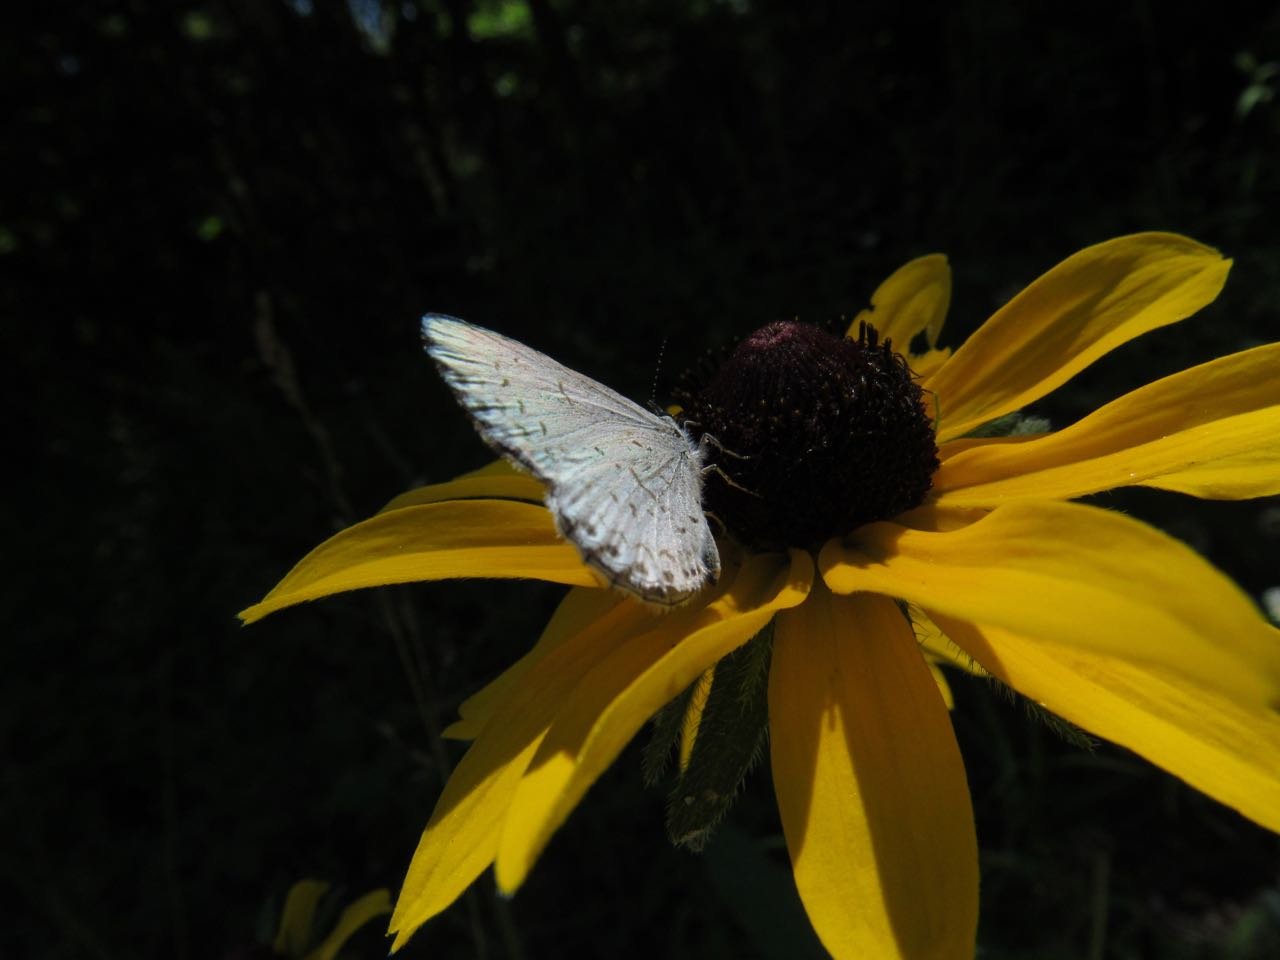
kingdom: Animalia
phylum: Arthropoda
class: Insecta
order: Lepidoptera
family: Lycaenidae
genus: Cyaniris
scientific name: Cyaniris neglecta
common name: Summer Azure
